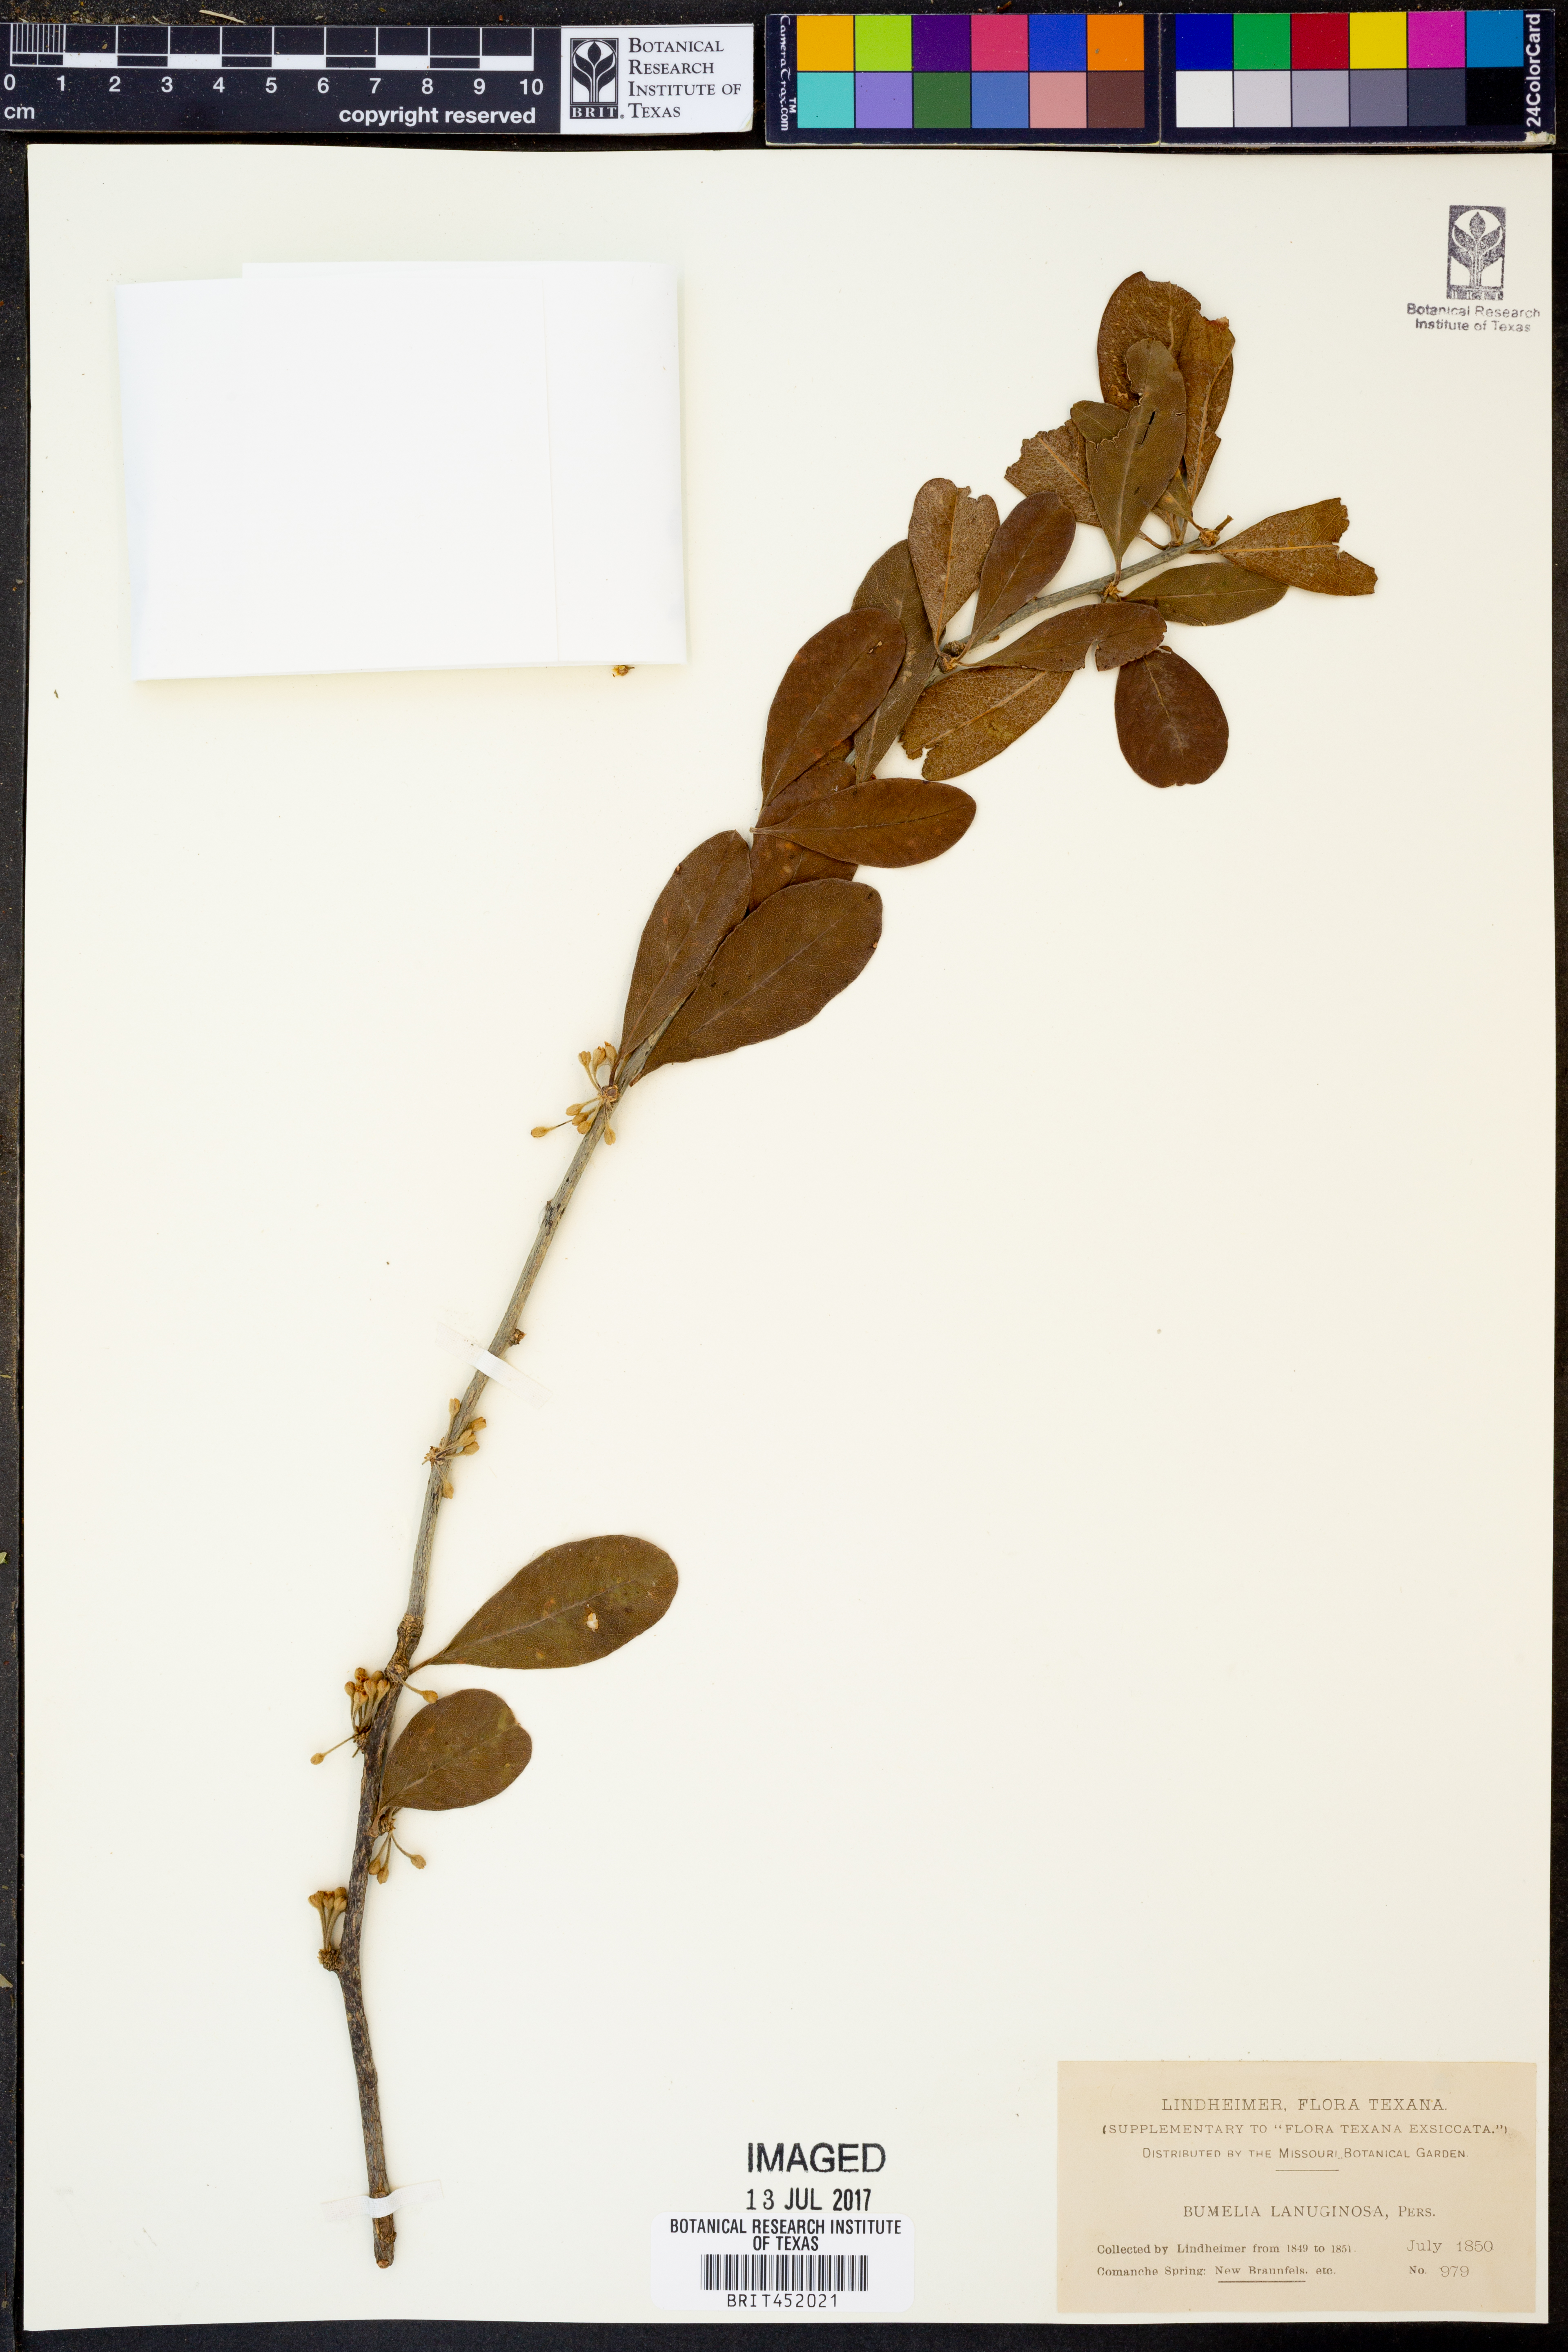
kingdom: Plantae
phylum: Tracheophyta
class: Magnoliopsida
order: Ericales
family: Sapotaceae
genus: Sideroxylon
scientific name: Sideroxylon lanuginosum
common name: Chittamwood
